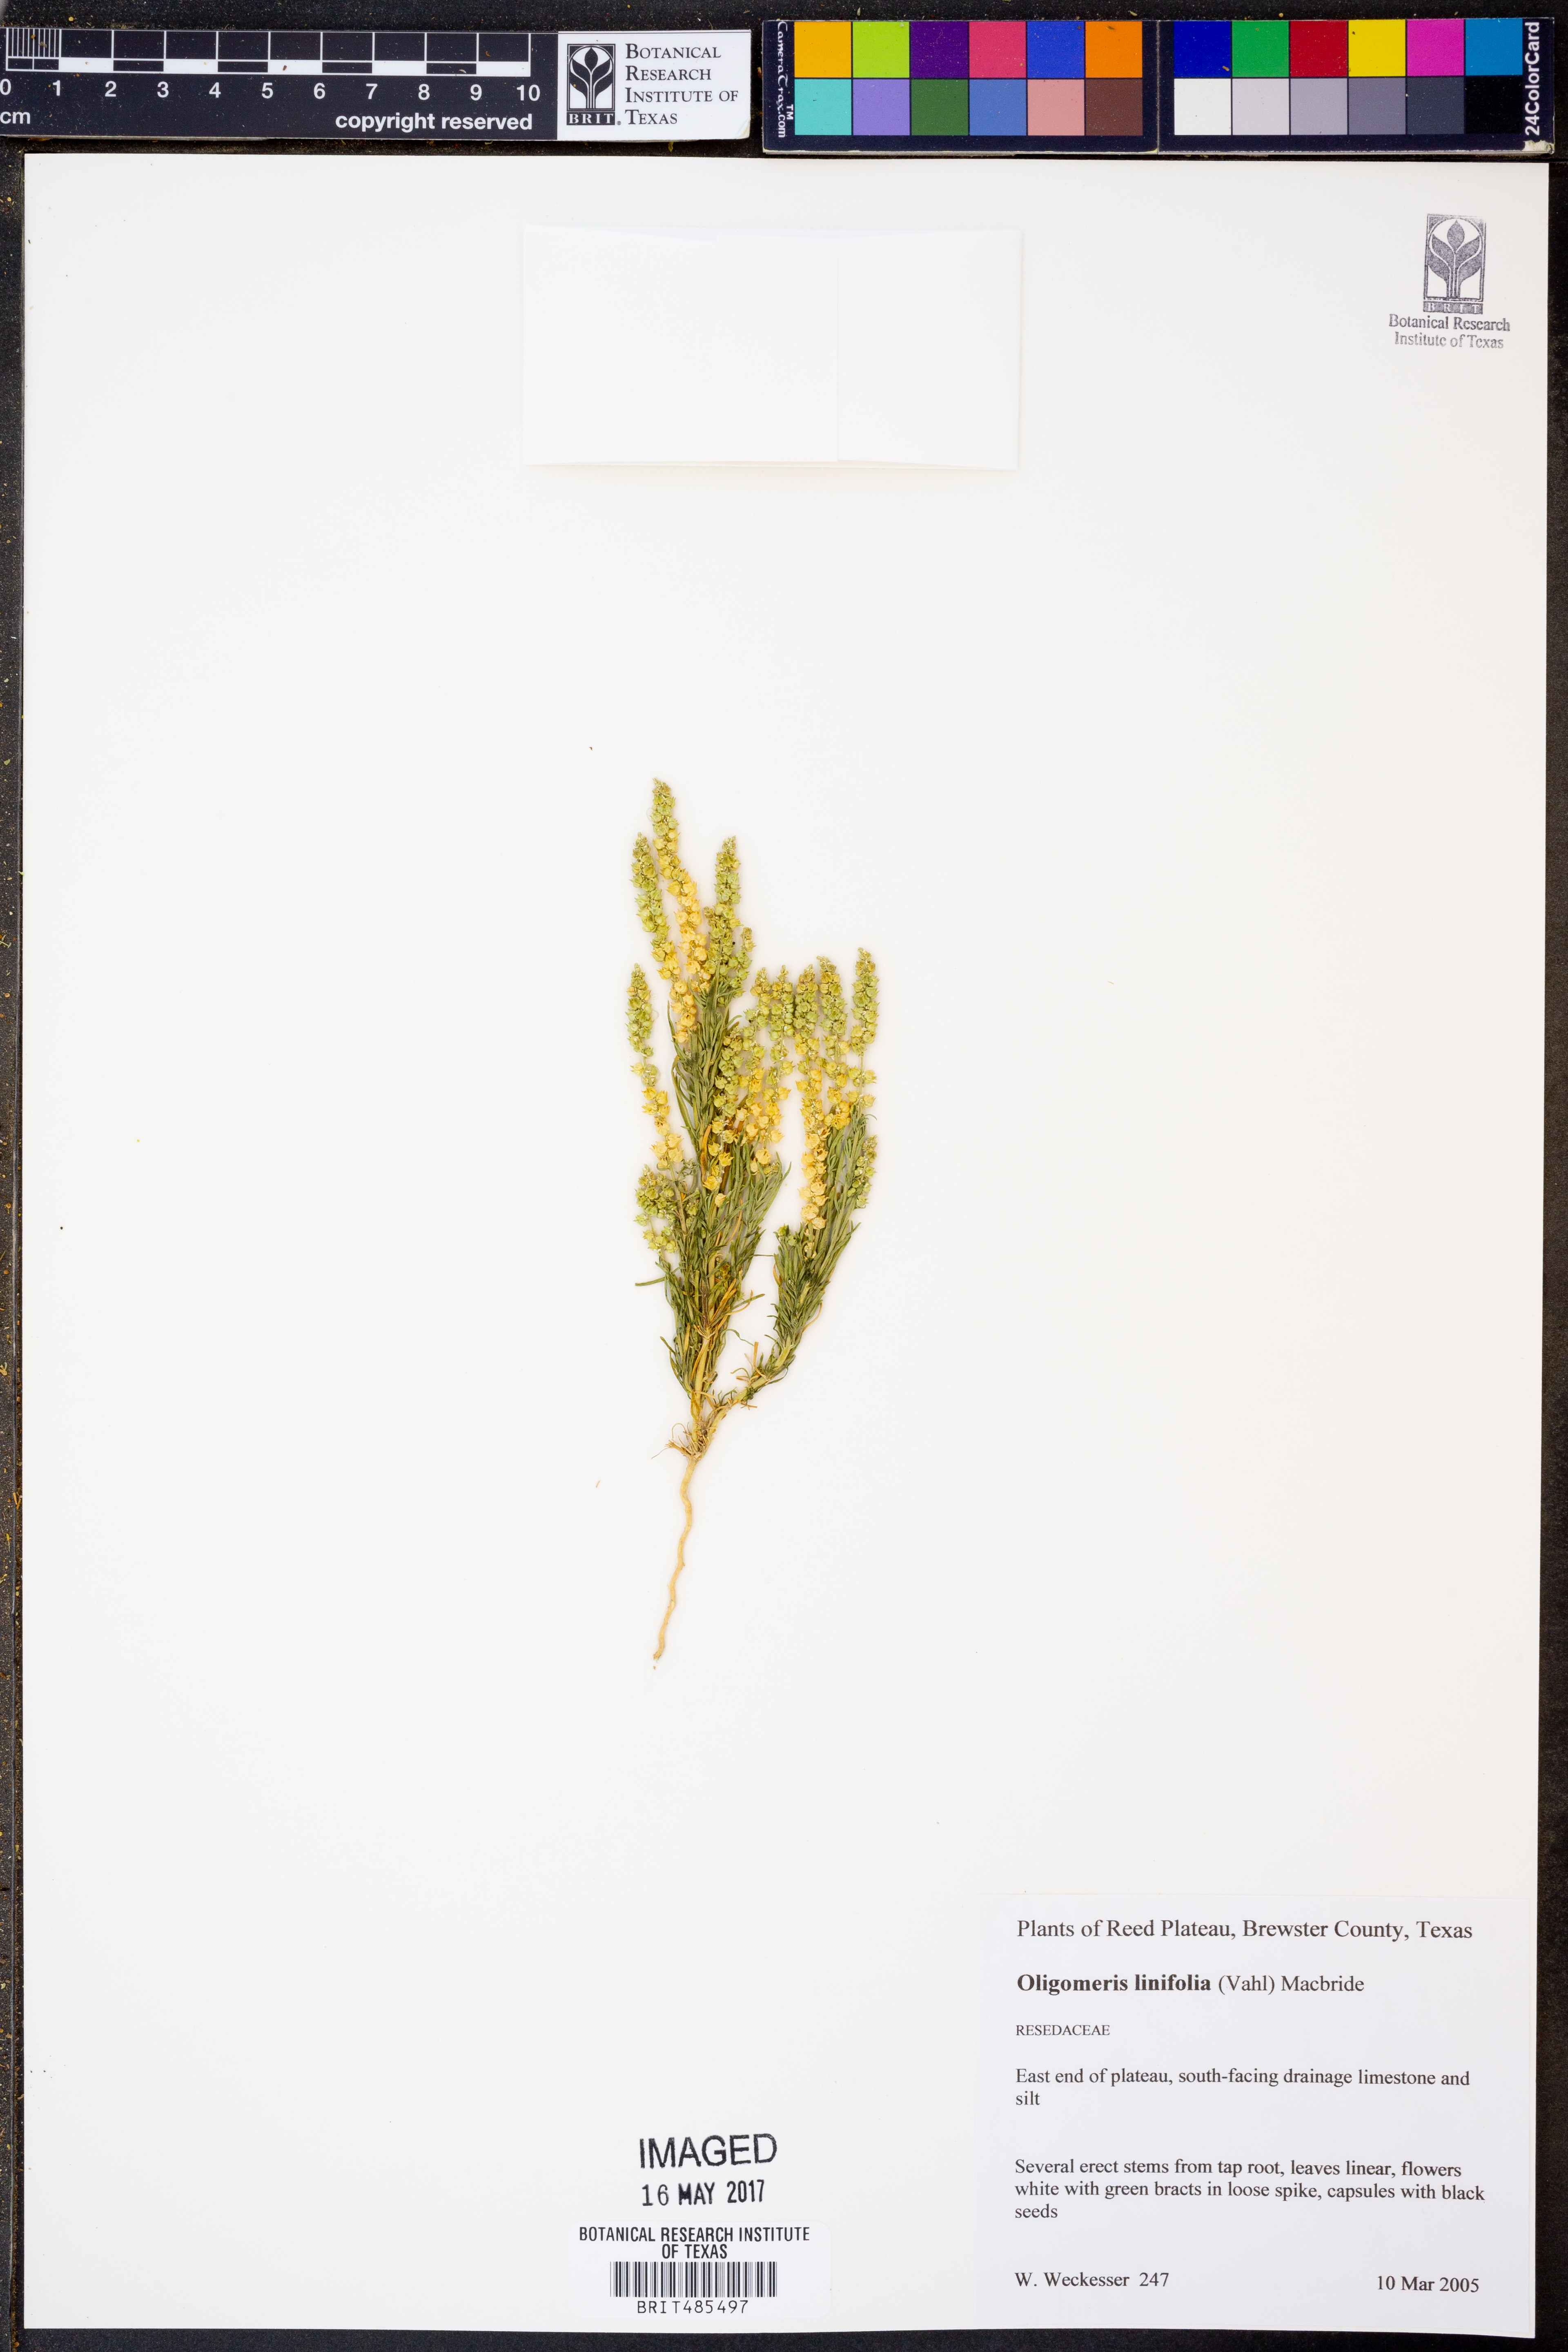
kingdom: Plantae
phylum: Tracheophyta
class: Magnoliopsida
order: Brassicales
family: Resedaceae
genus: Oligomeris
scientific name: Oligomeris linifolia
